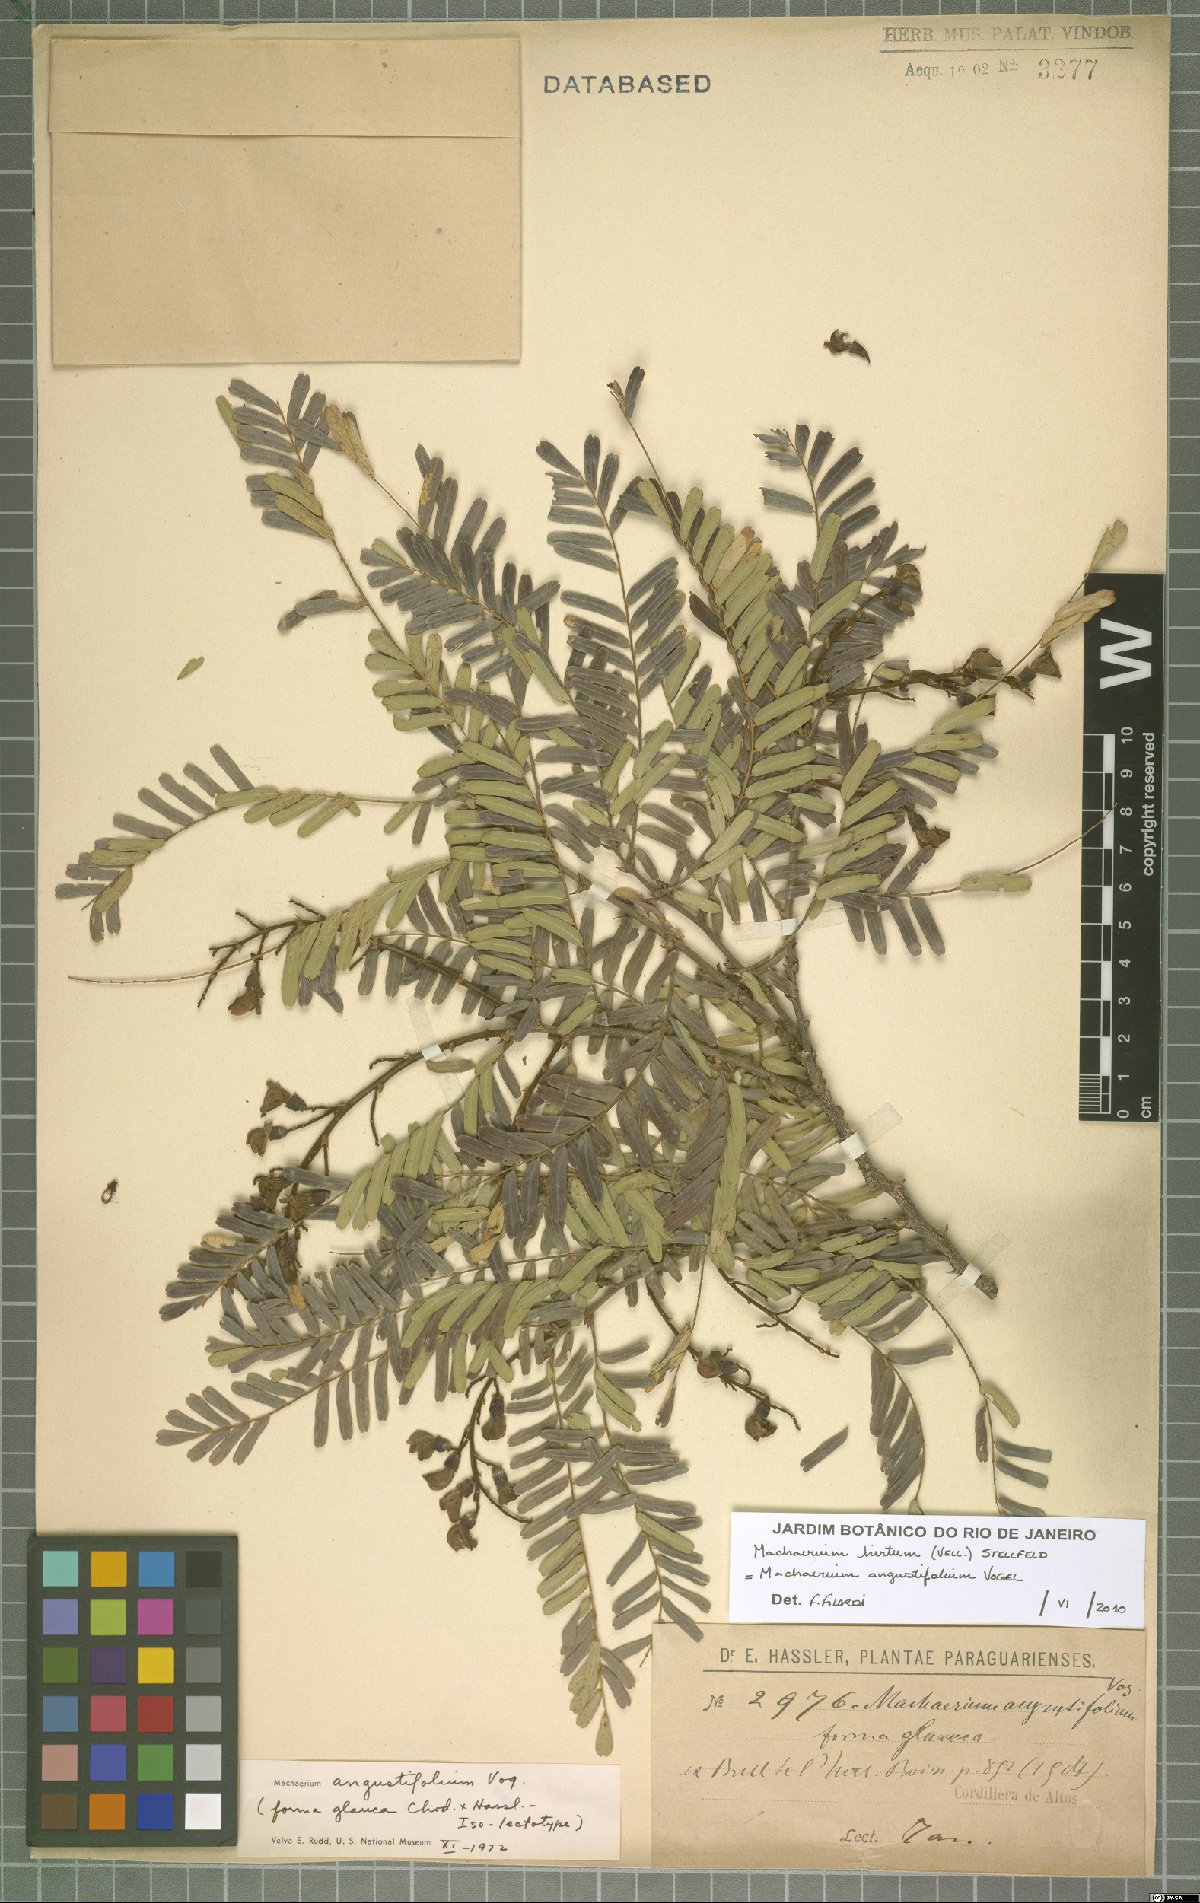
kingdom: Plantae
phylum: Tracheophyta
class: Magnoliopsida
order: Fabales
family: Fabaceae
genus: Machaerium
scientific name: Machaerium hirtum
